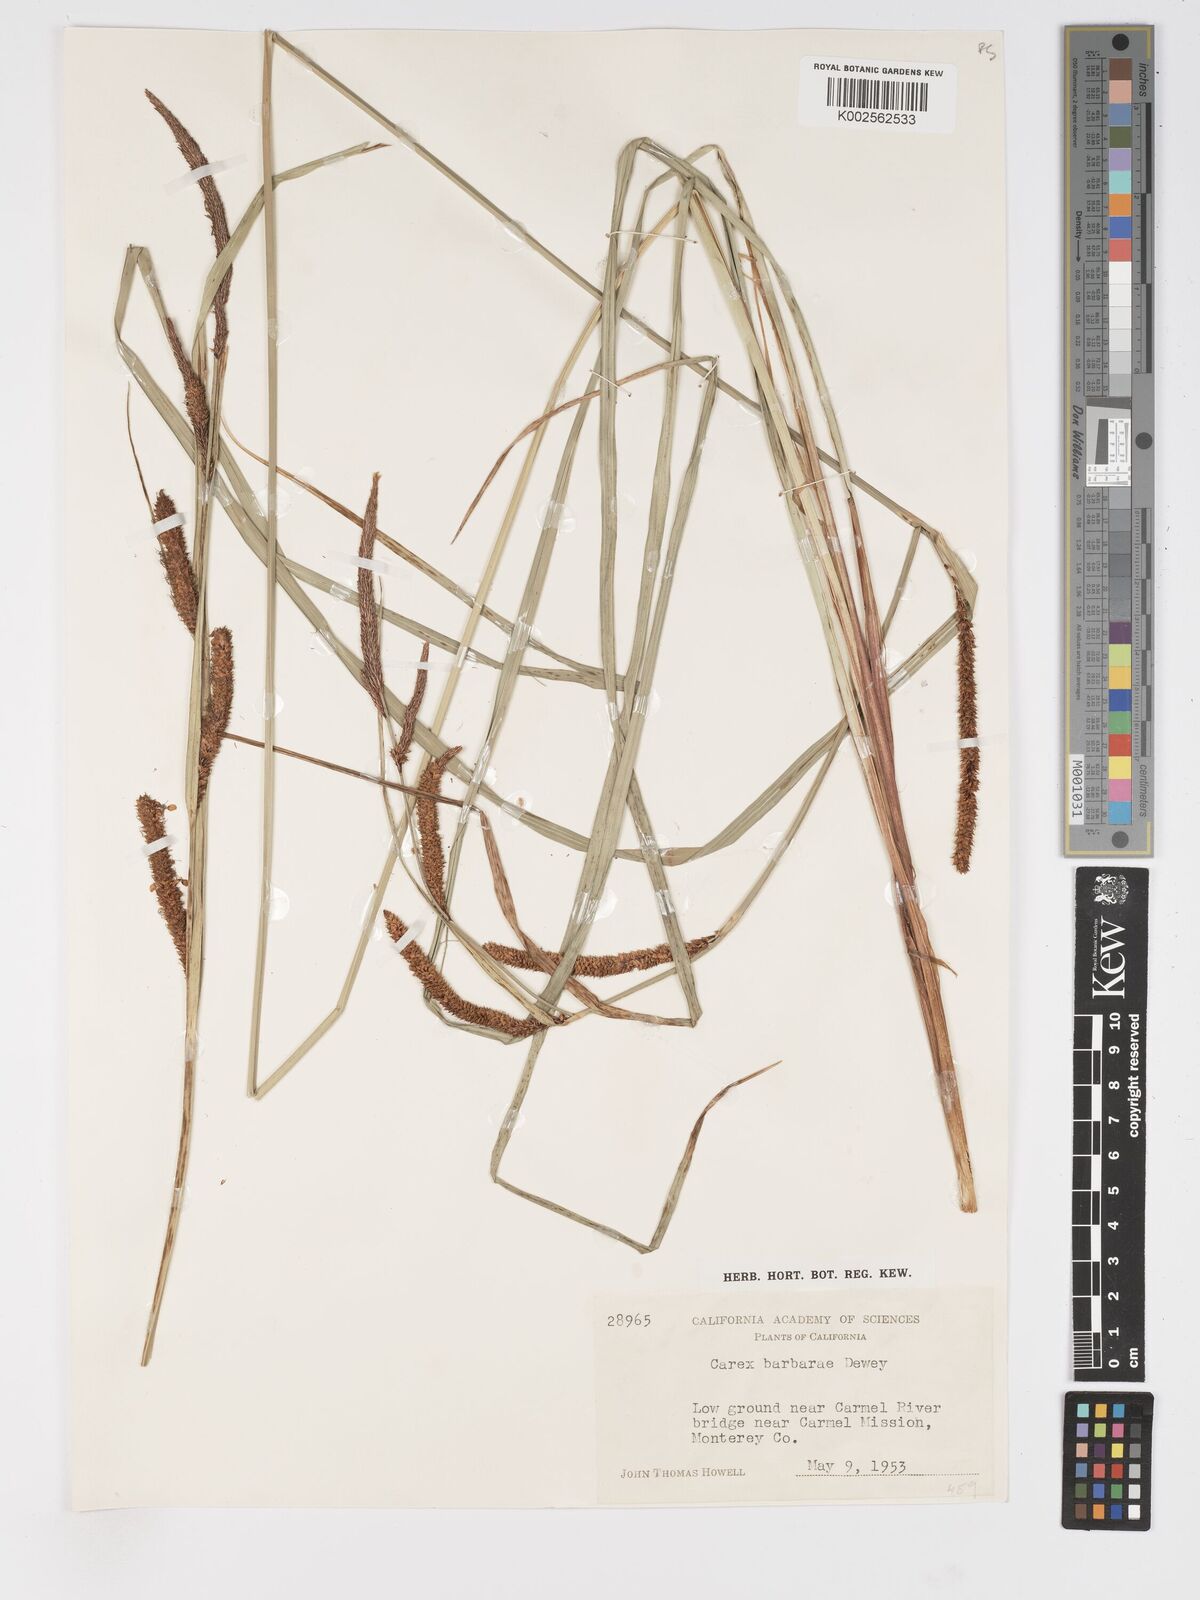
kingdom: Plantae
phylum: Tracheophyta
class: Liliopsida
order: Poales
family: Cyperaceae
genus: Carex
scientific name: Carex barbarae
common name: Santa barbara sedge
